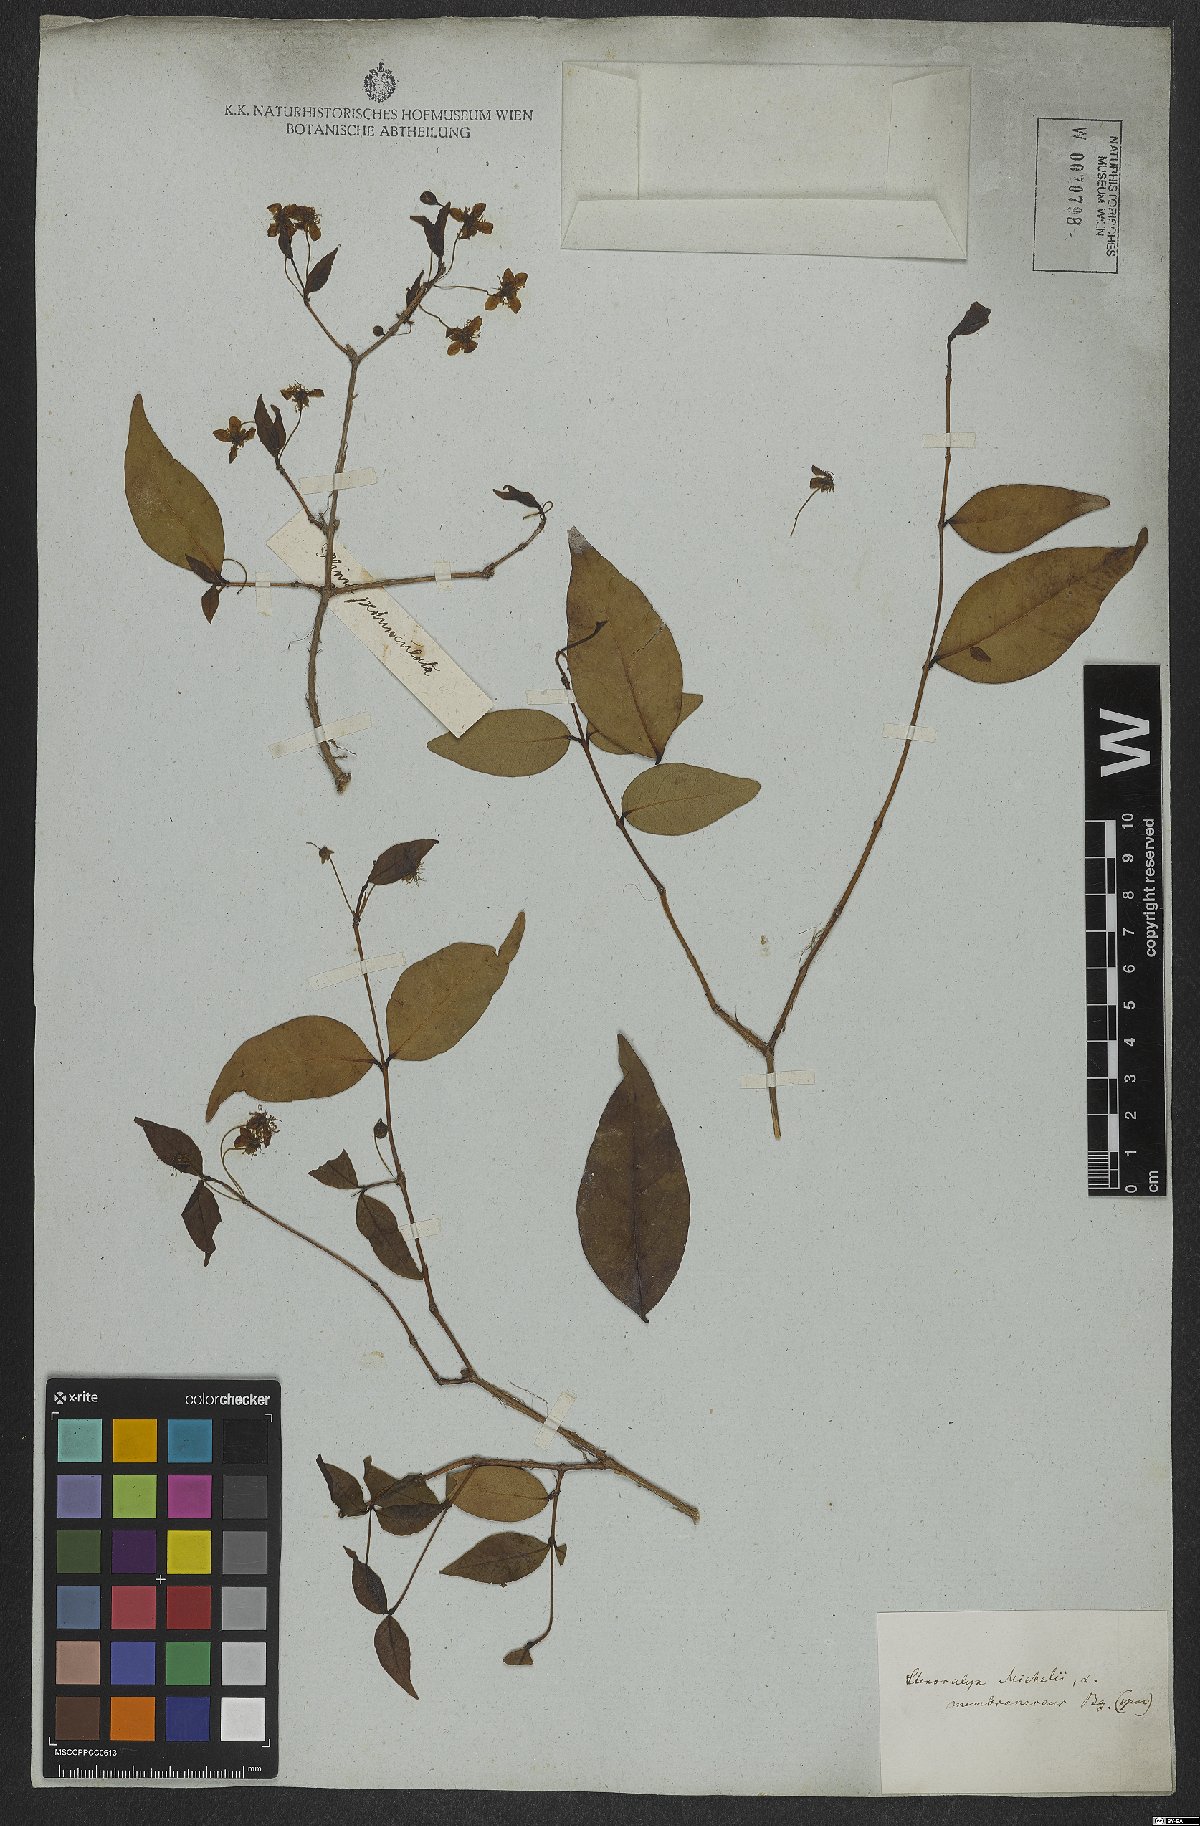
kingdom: Plantae
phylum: Tracheophyta
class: Magnoliopsida
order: Myrtales
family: Myrtaceae
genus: Eugenia
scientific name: Eugenia uniflora
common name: Surinam cherry
